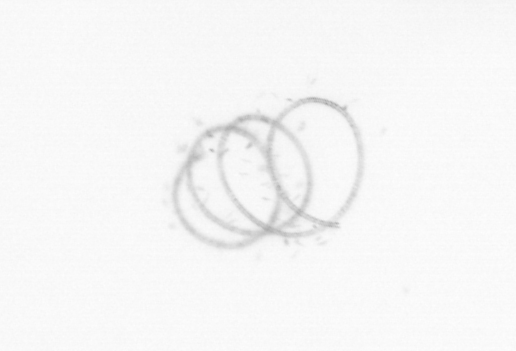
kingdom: Chromista
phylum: Ochrophyta
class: Bacillariophyceae
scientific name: Bacillariophyceae
